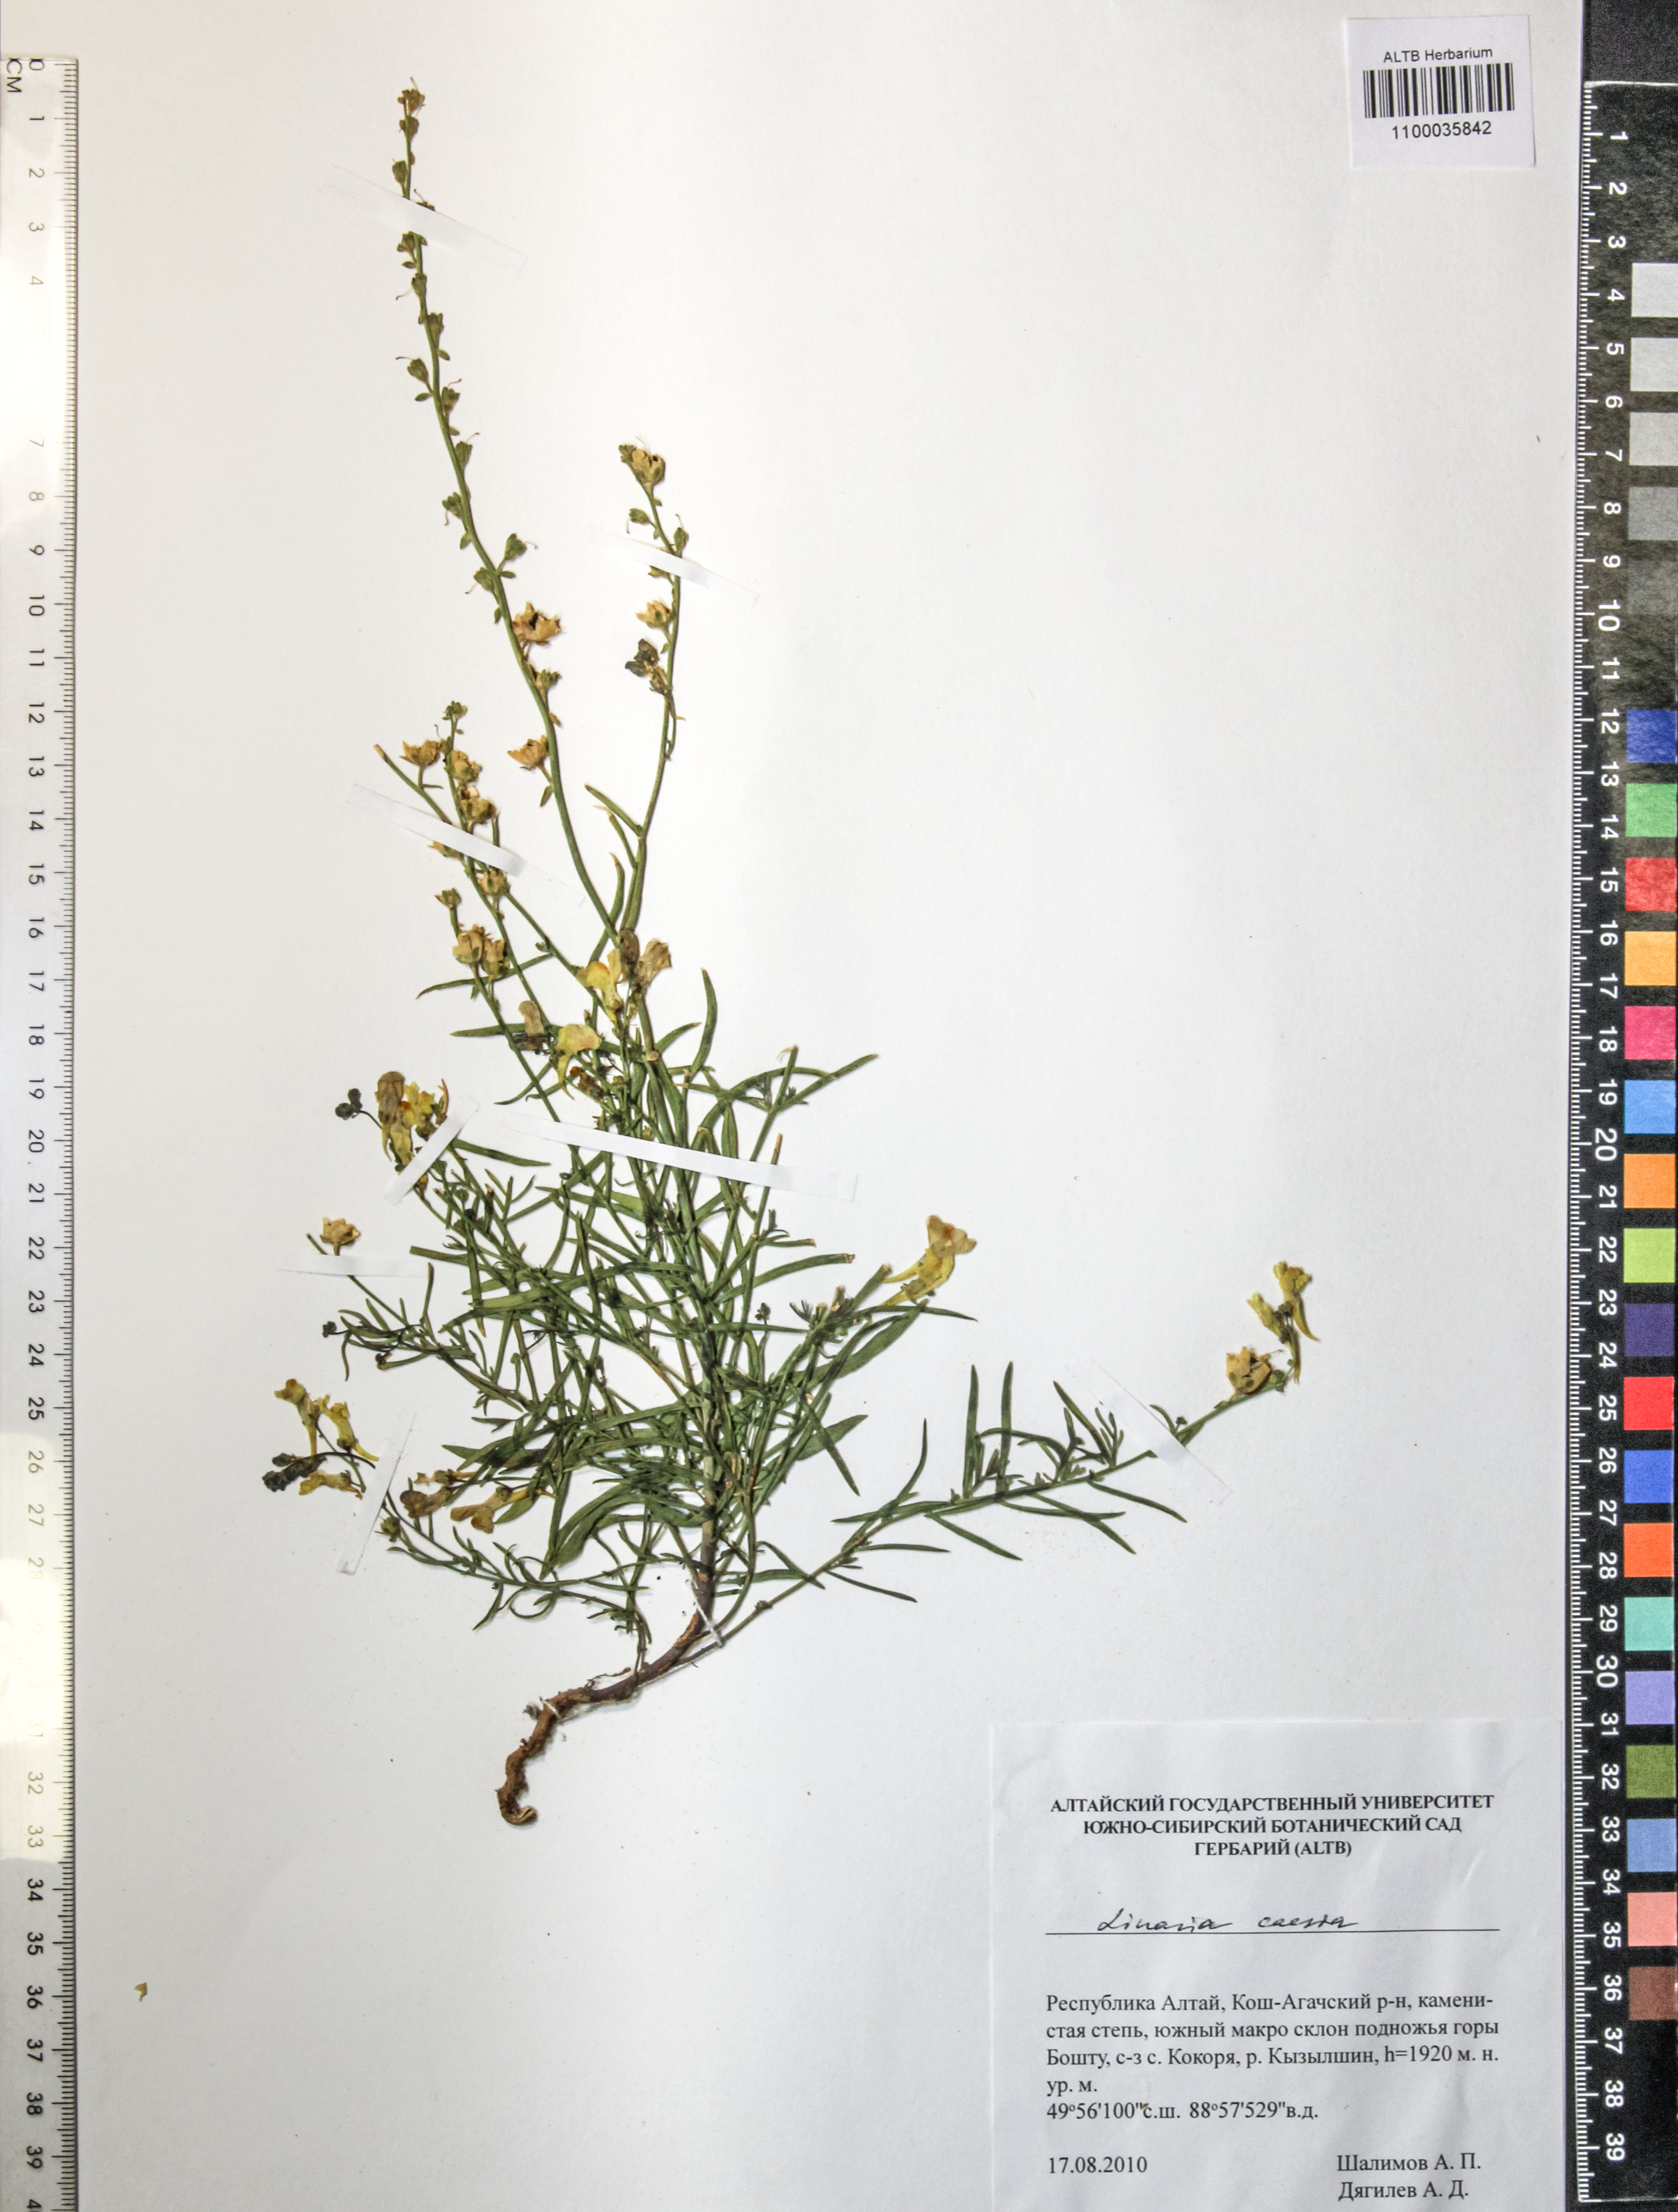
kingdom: Plantae
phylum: Tracheophyta
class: Magnoliopsida
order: Lamiales
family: Plantaginaceae
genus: Linaria
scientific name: Linaria caesia
